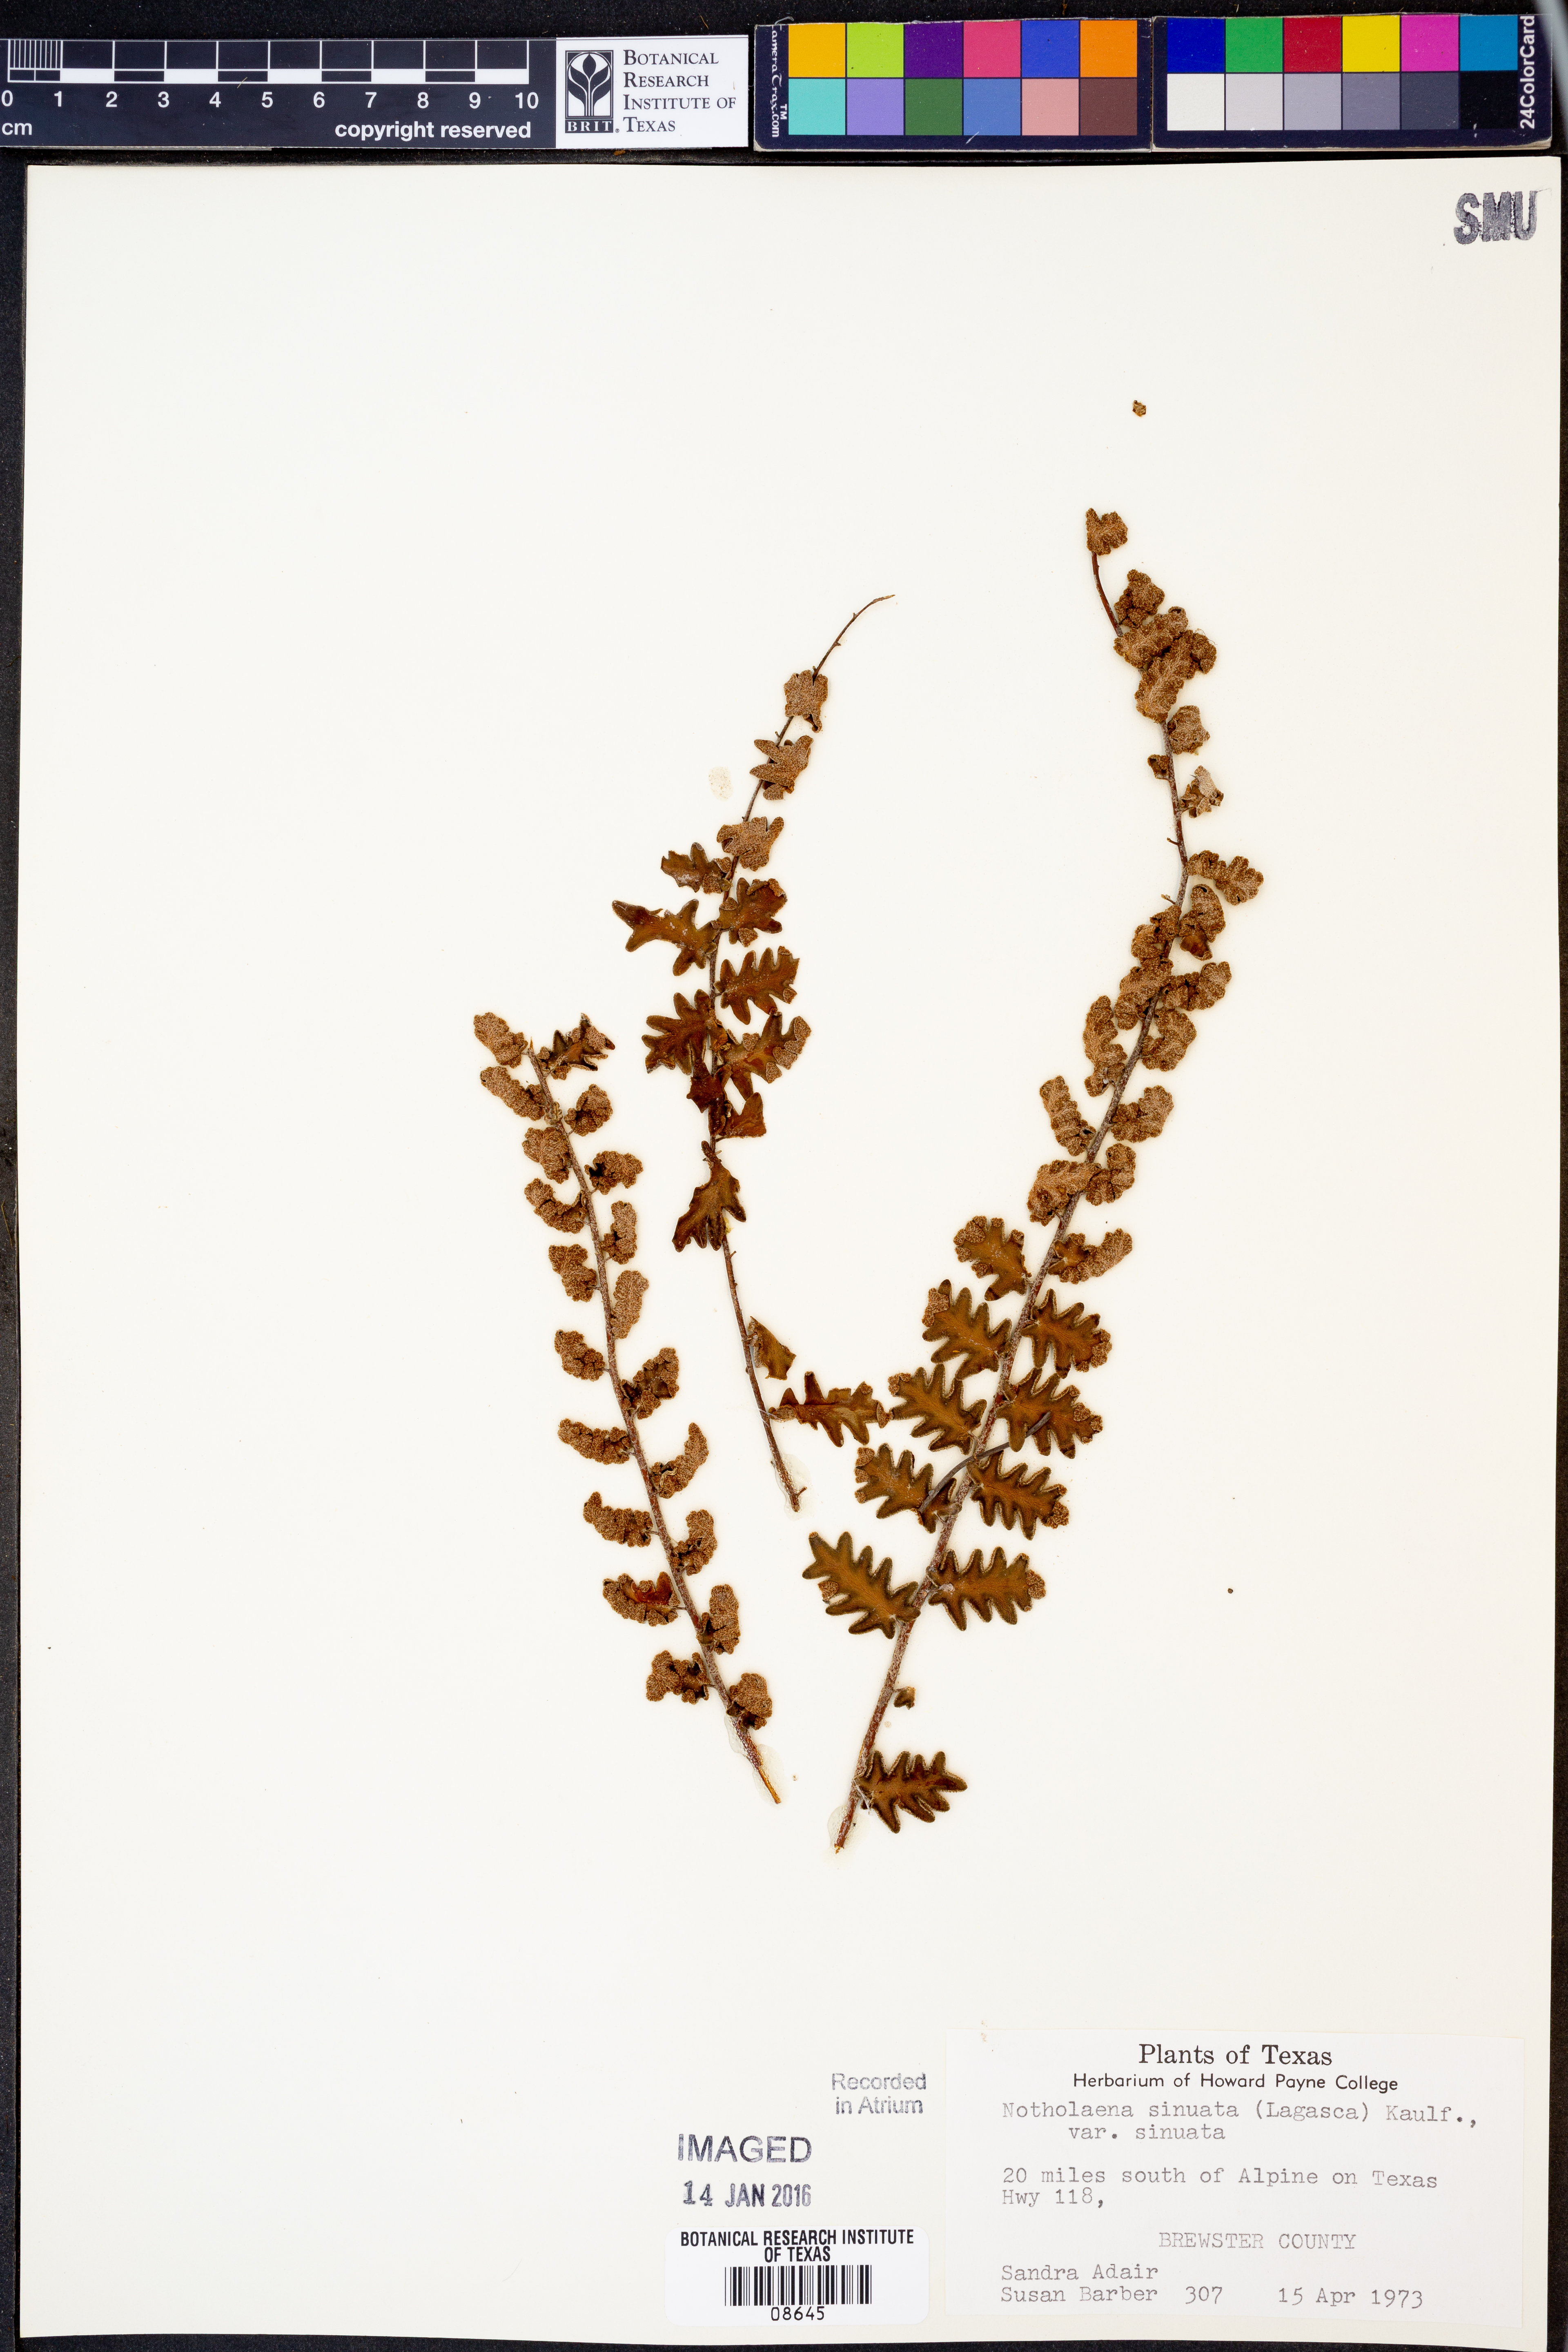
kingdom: Plantae
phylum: Tracheophyta
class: Polypodiopsida
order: Polypodiales
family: Pteridaceae
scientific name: Pteridaceae
